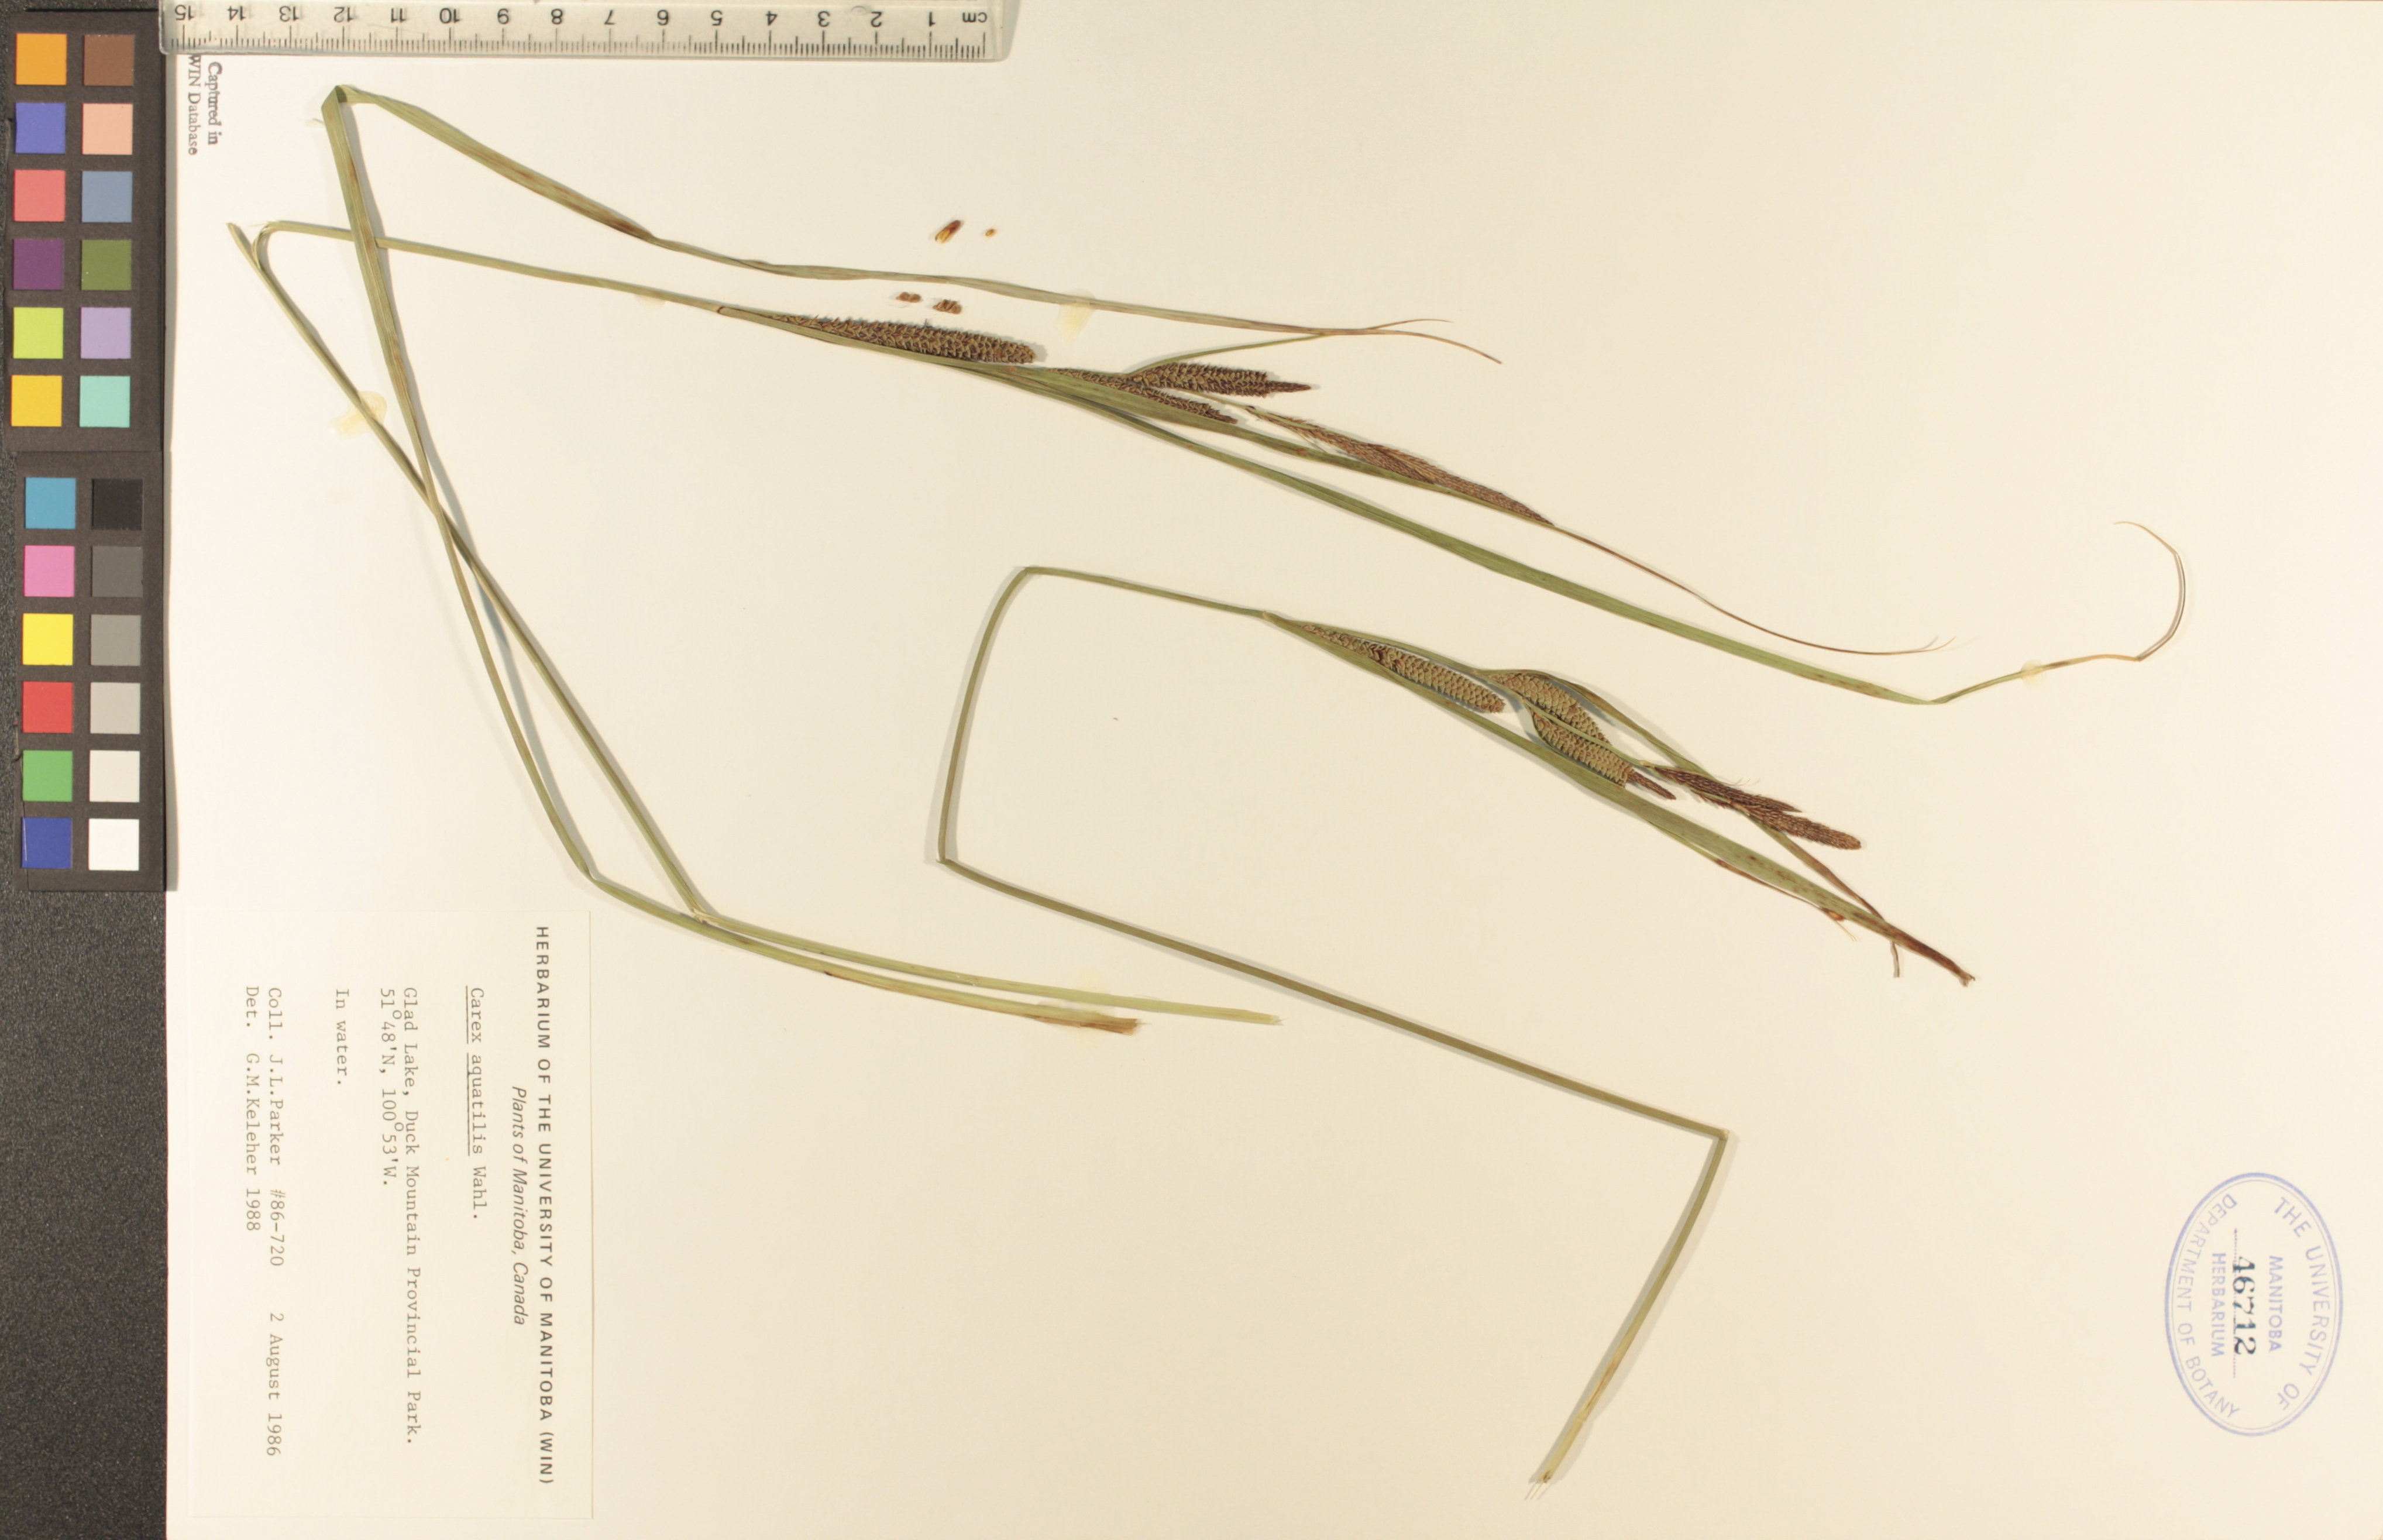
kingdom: Plantae
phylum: Tracheophyta
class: Liliopsida
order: Poales
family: Cyperaceae
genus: Carex
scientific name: Carex aquatilis
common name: Water sedge
